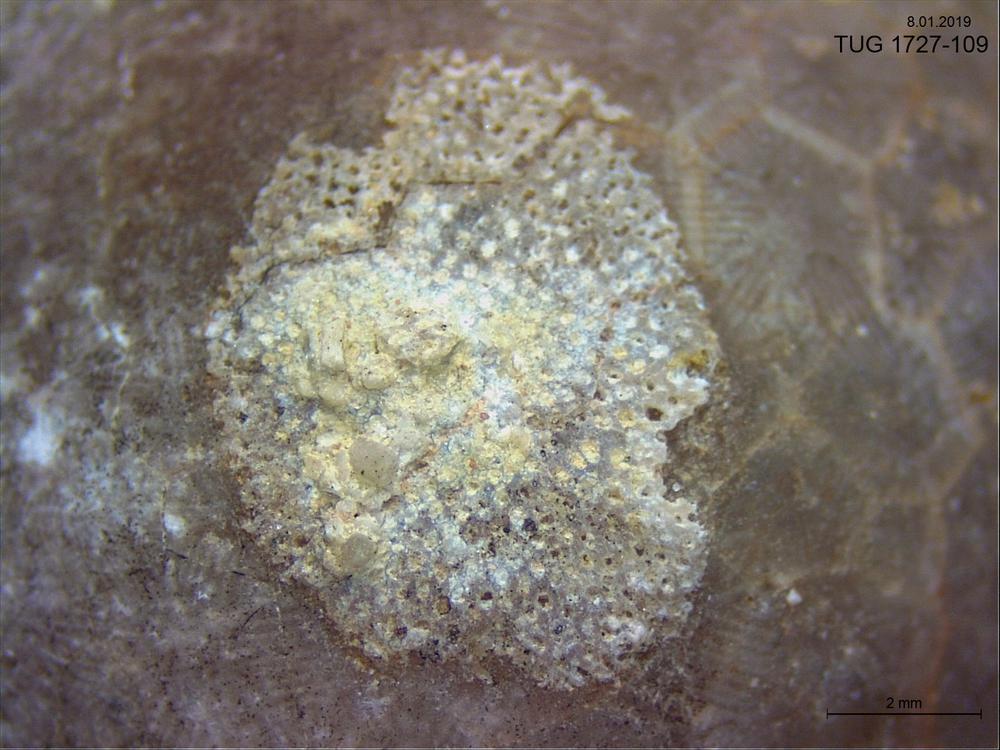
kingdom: Animalia
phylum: Bryozoa
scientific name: Bryozoa
